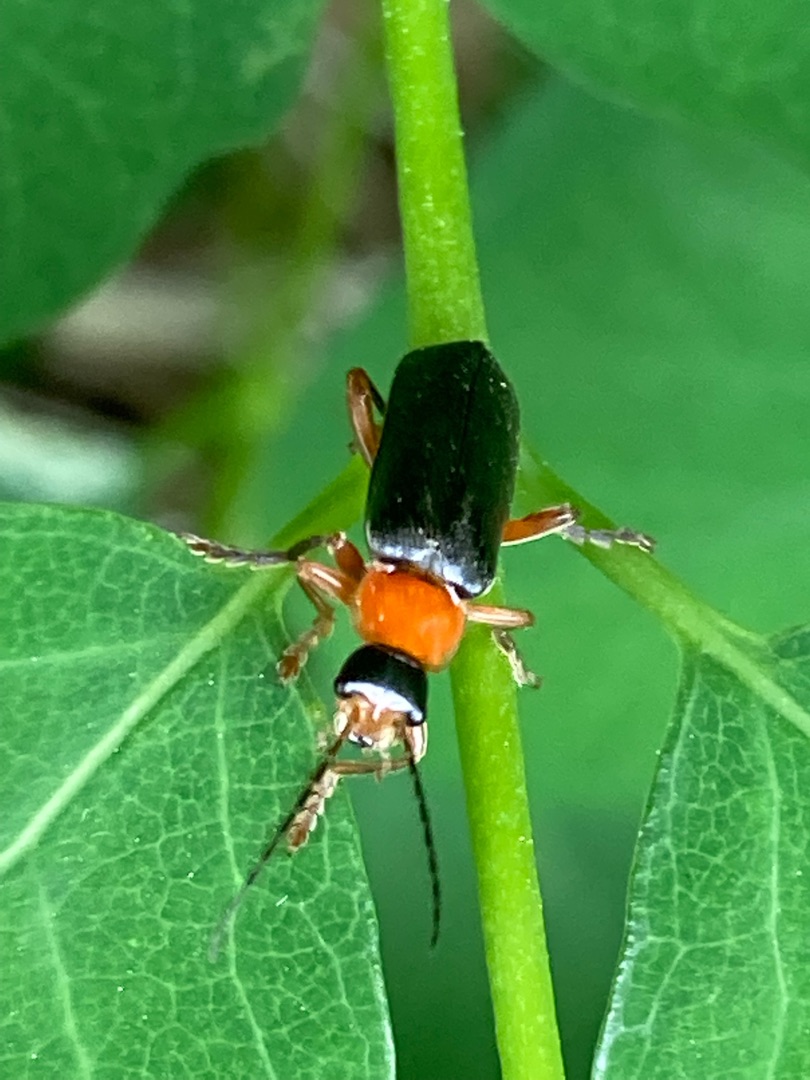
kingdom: Animalia
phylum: Arthropoda
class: Insecta
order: Coleoptera
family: Cantharidae
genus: Cantharis
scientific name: Cantharis pellucida
